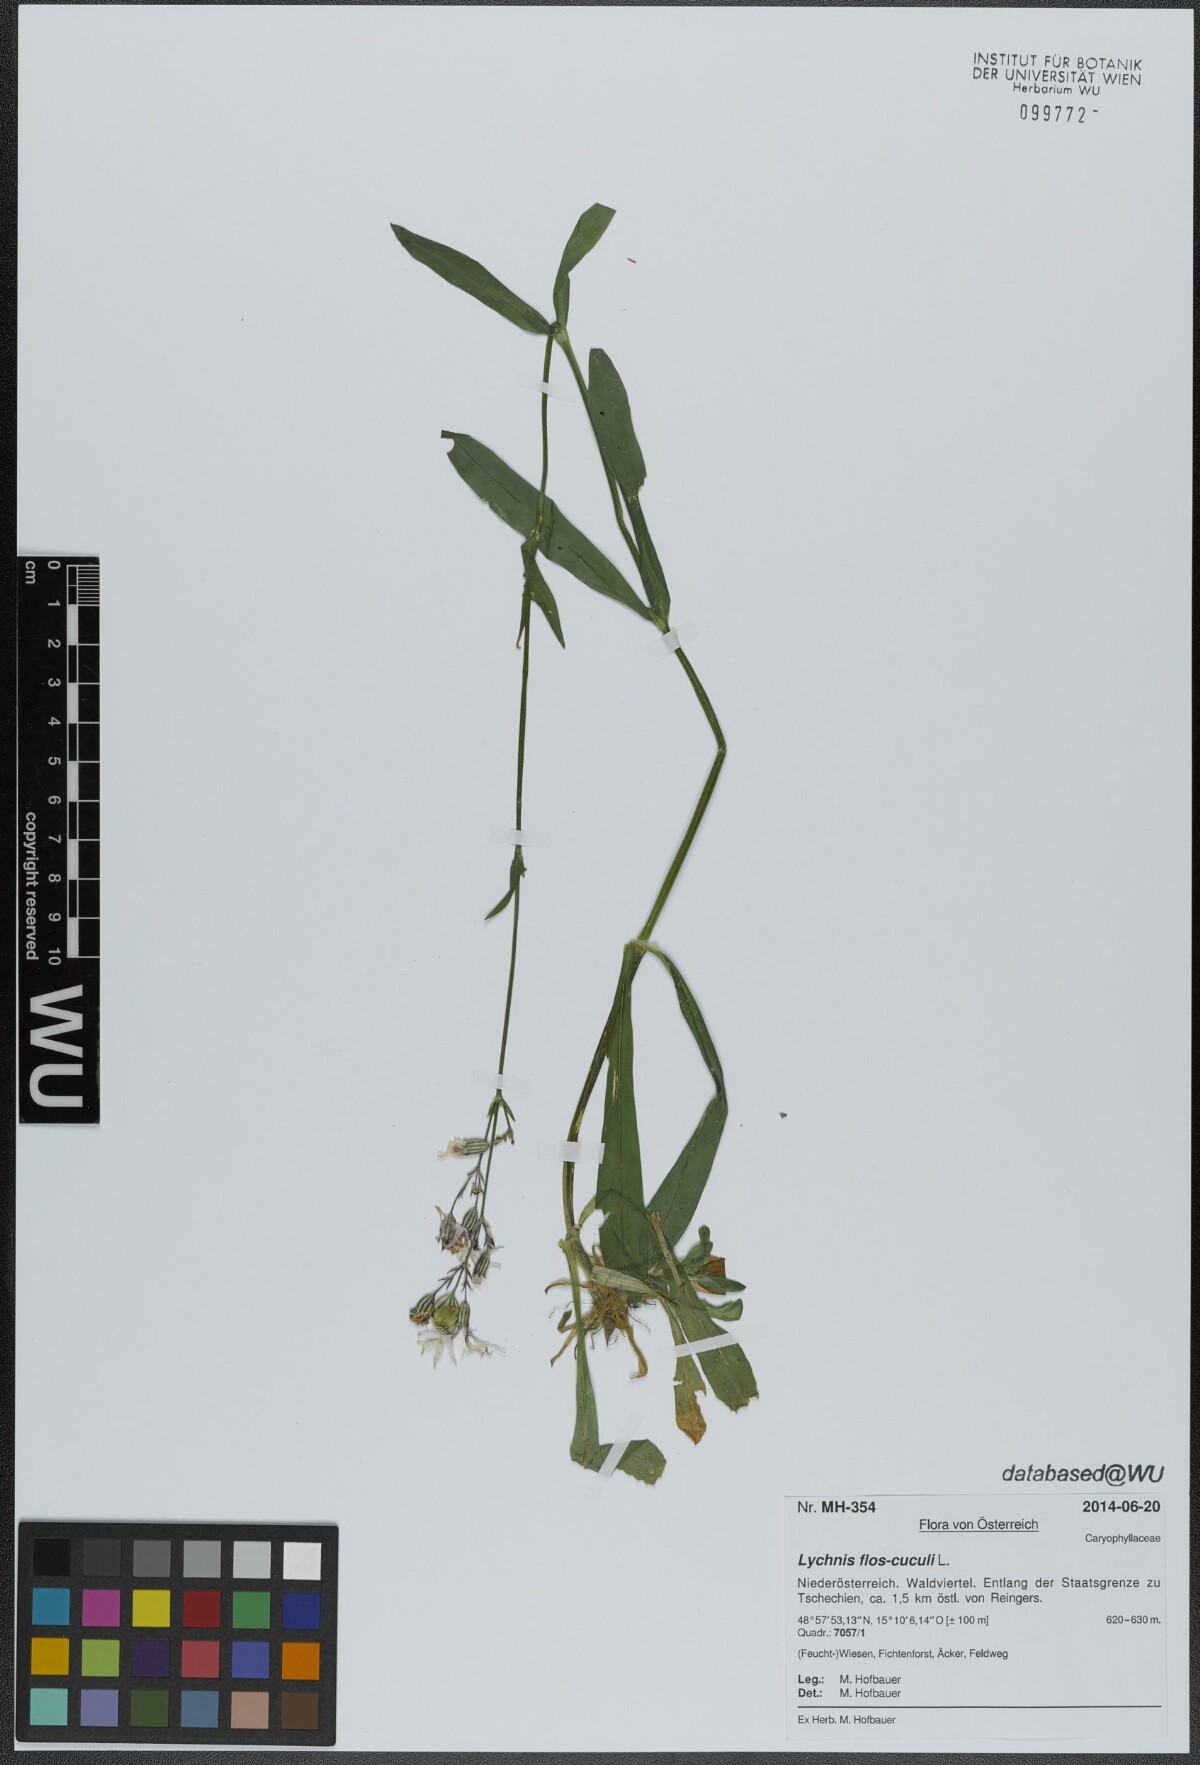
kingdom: Plantae
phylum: Tracheophyta
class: Magnoliopsida
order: Caryophyllales
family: Caryophyllaceae
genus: Silene
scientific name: Silene flos-cuculi
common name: Ragged-robin
